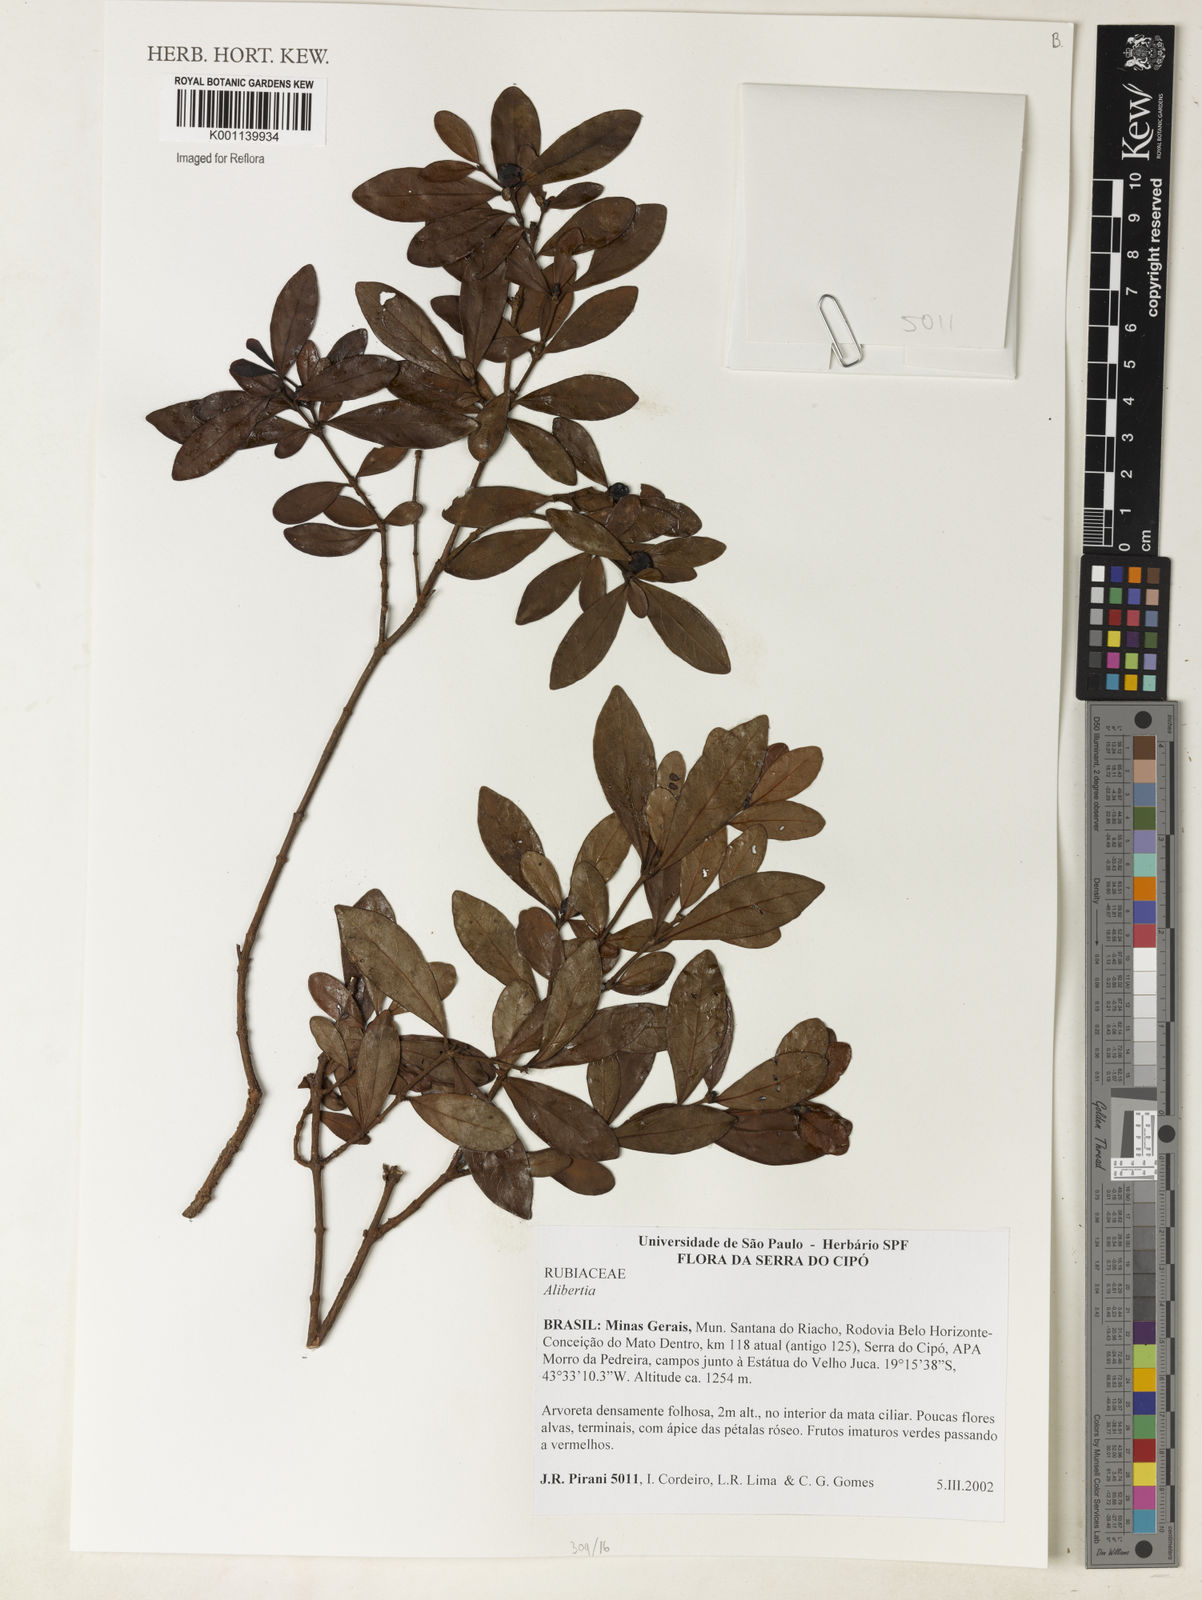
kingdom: Plantae
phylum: Tracheophyta
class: Magnoliopsida
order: Gentianales
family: Rubiaceae
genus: Alibertia
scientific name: Alibertia
